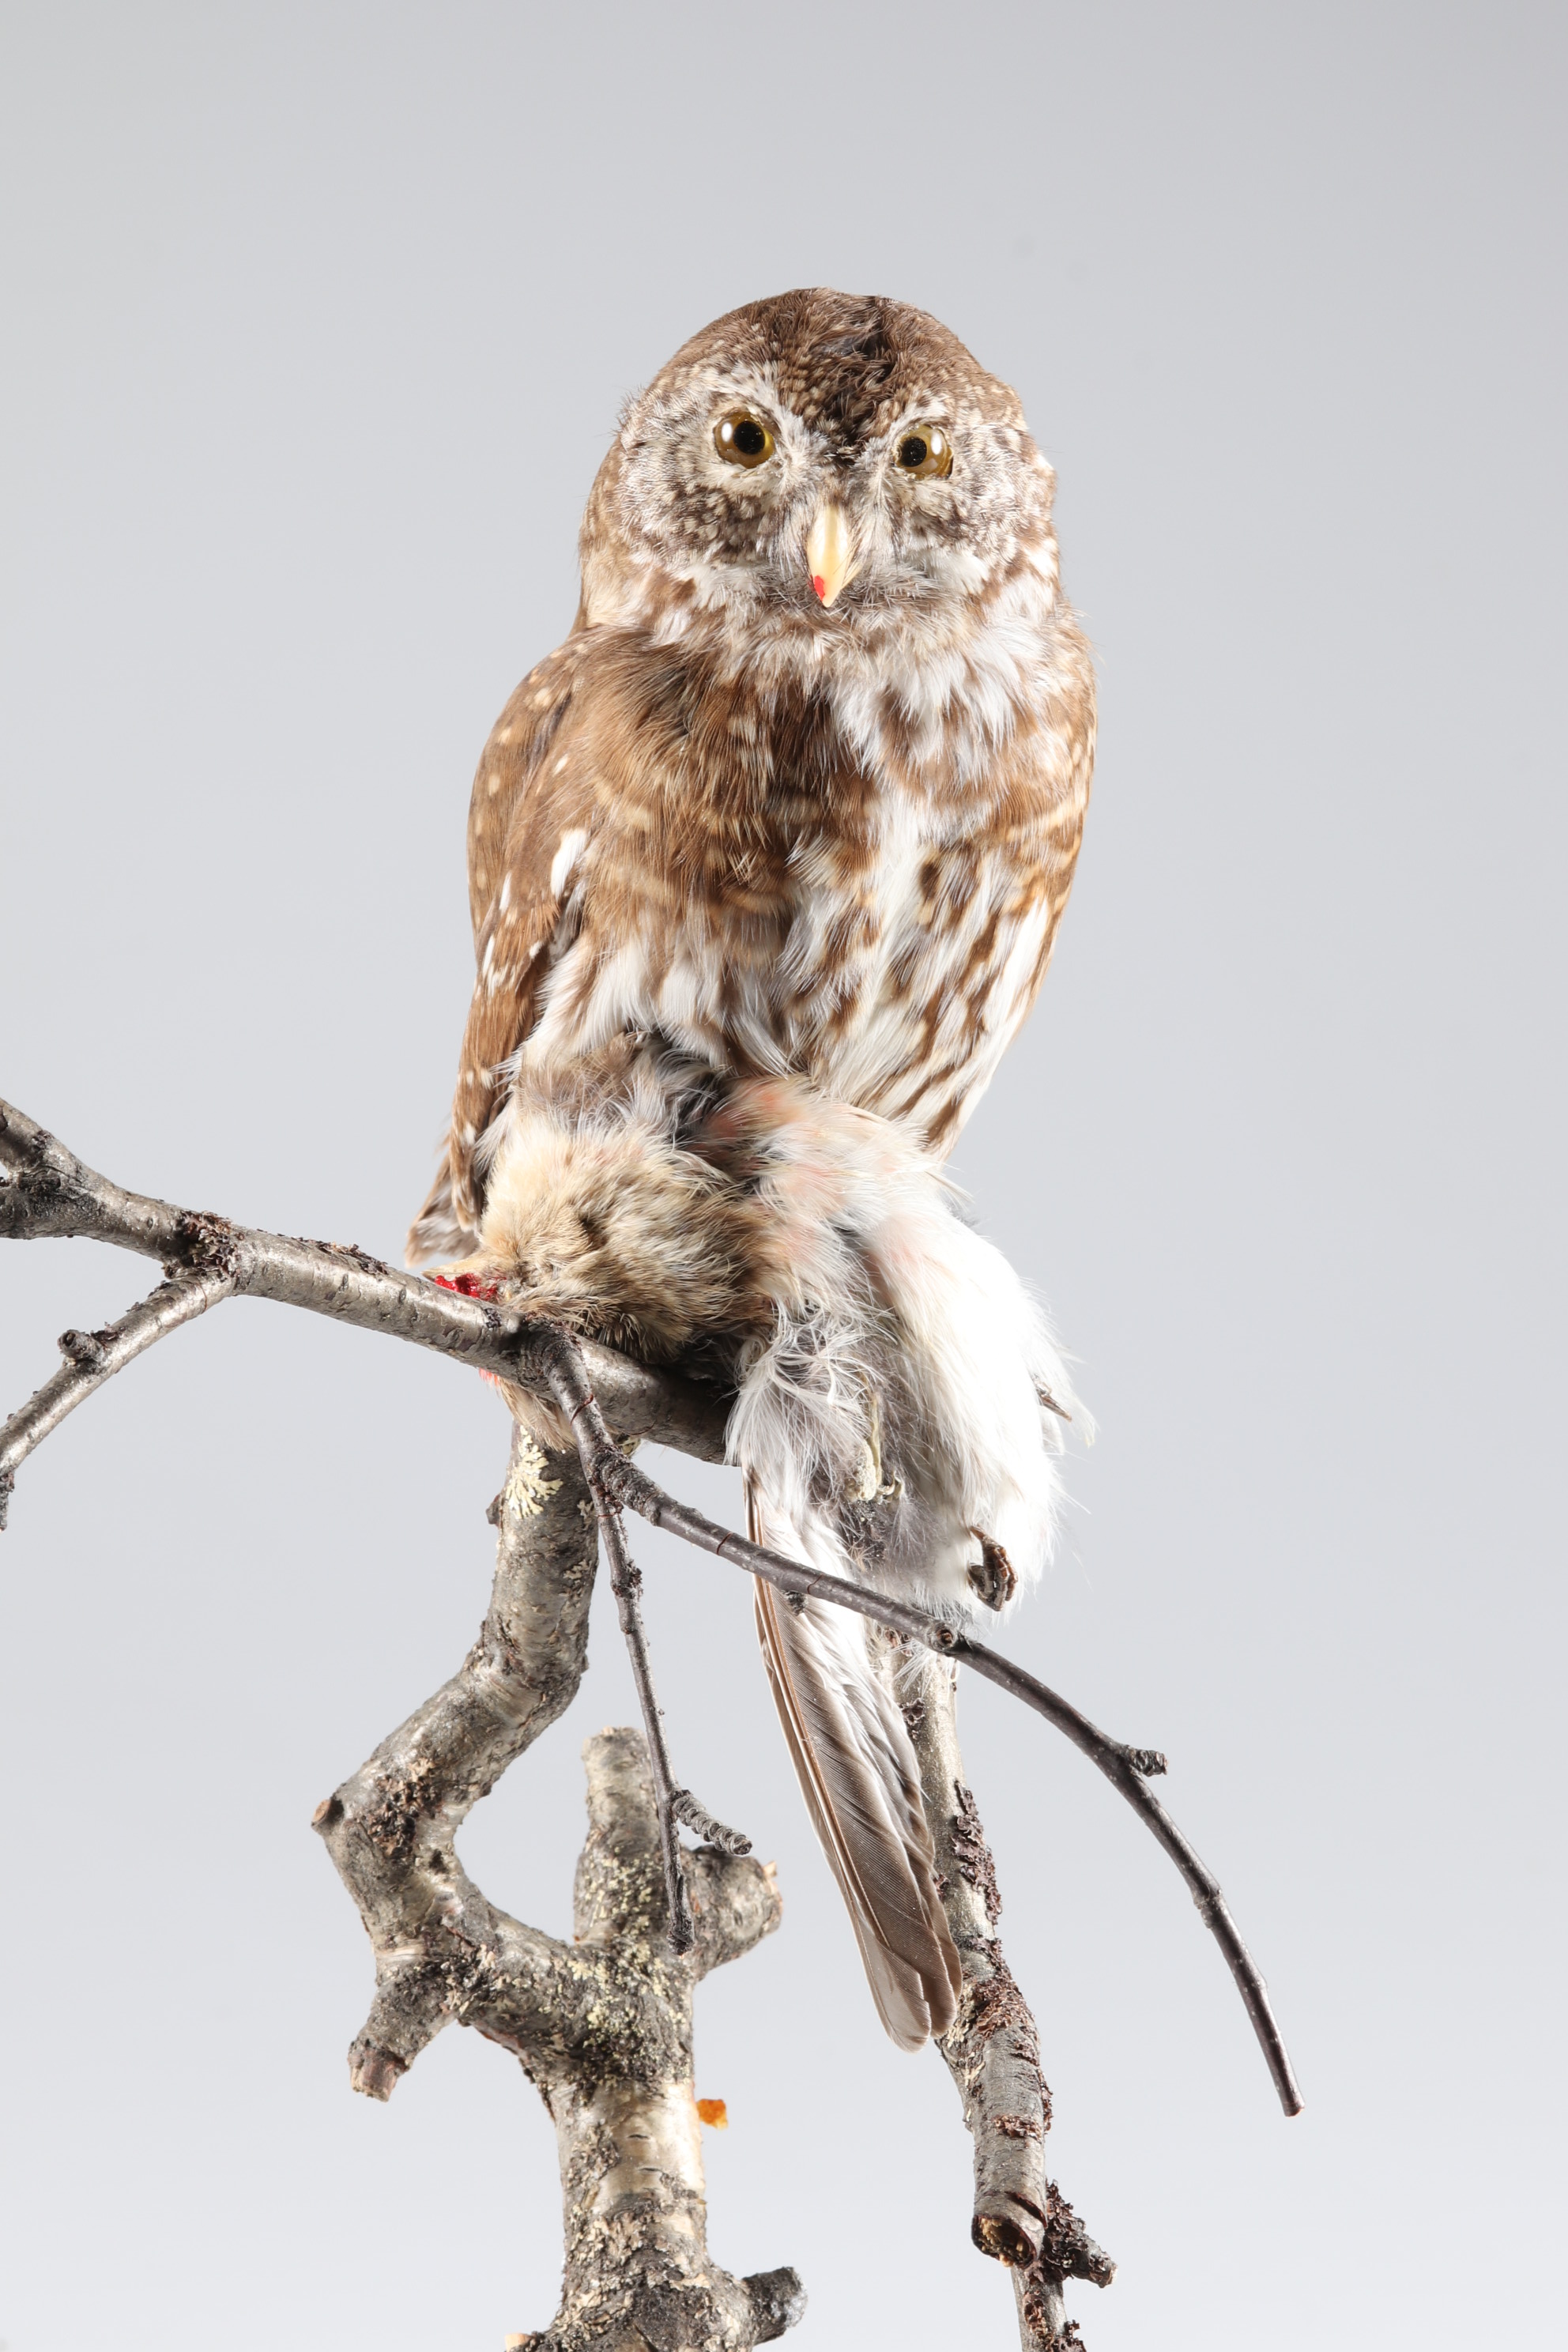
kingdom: Animalia
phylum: Chordata
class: Aves
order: Strigiformes
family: Strigidae
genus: Glaucidium
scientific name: Glaucidium passerinum
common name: Eurasian pygmy owl
